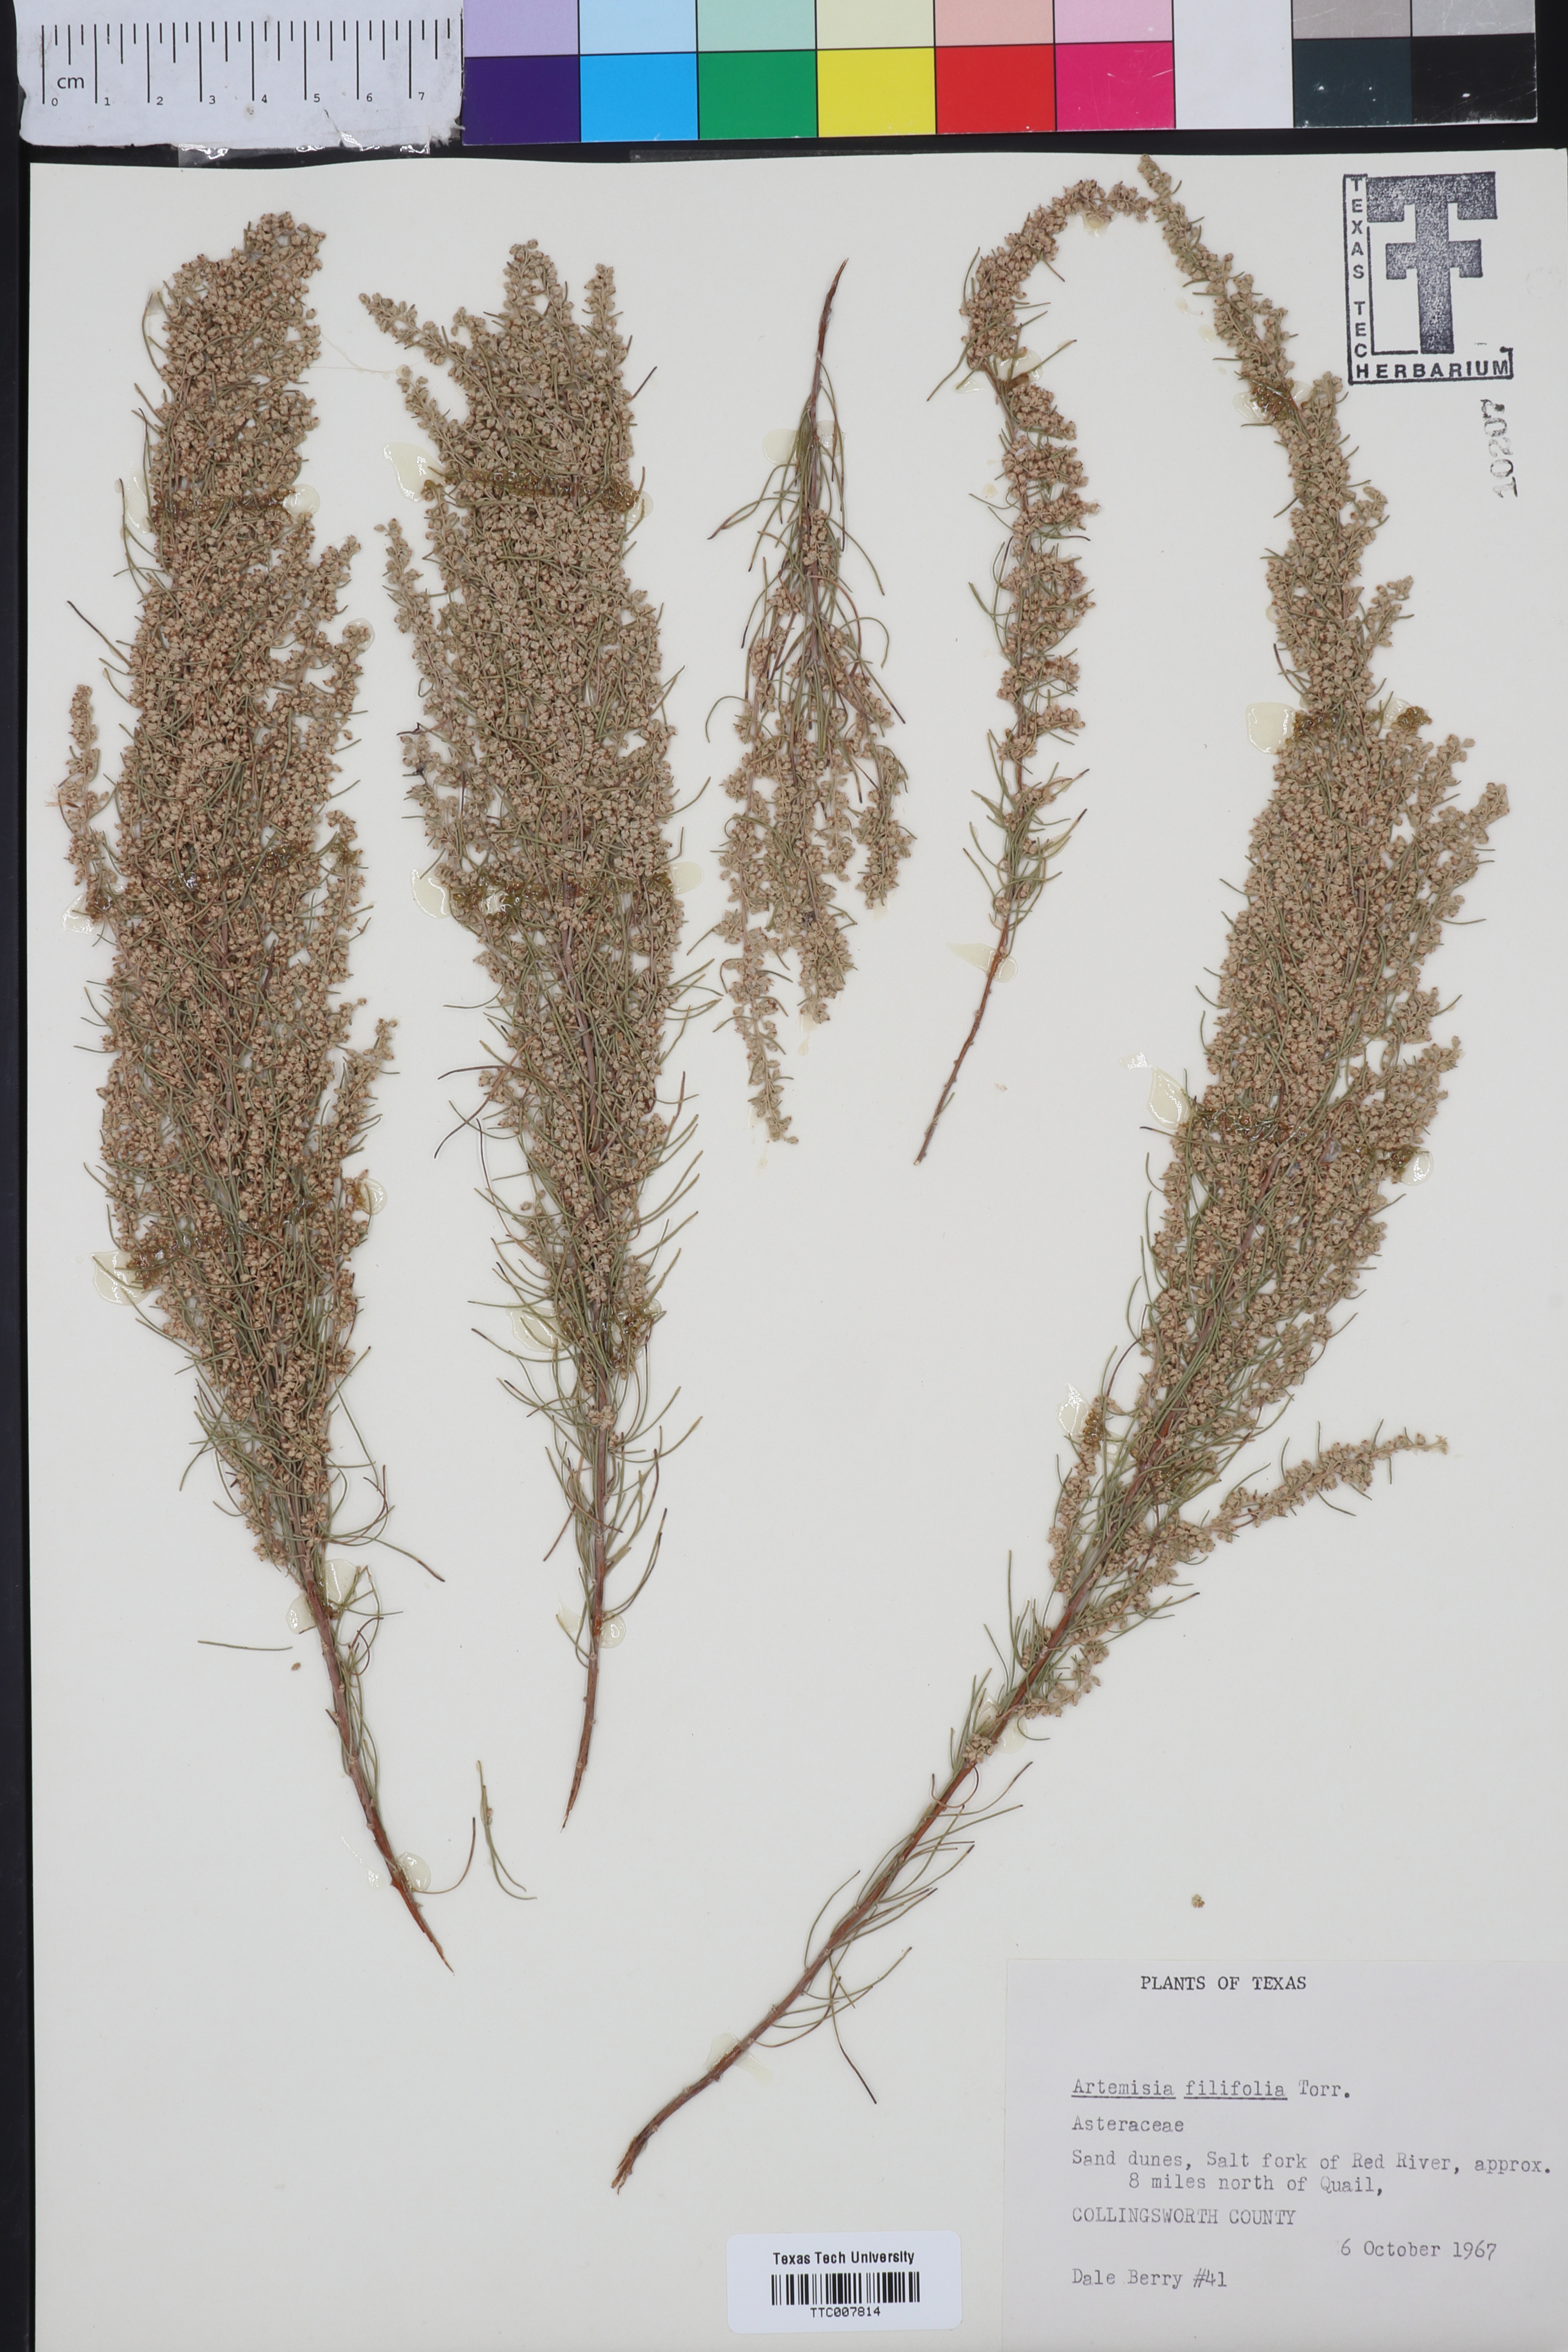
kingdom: Plantae
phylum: Tracheophyta
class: Magnoliopsida
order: Asterales
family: Asteraceae
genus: Artemisia
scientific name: Artemisia filifolia
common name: Sand-sage
